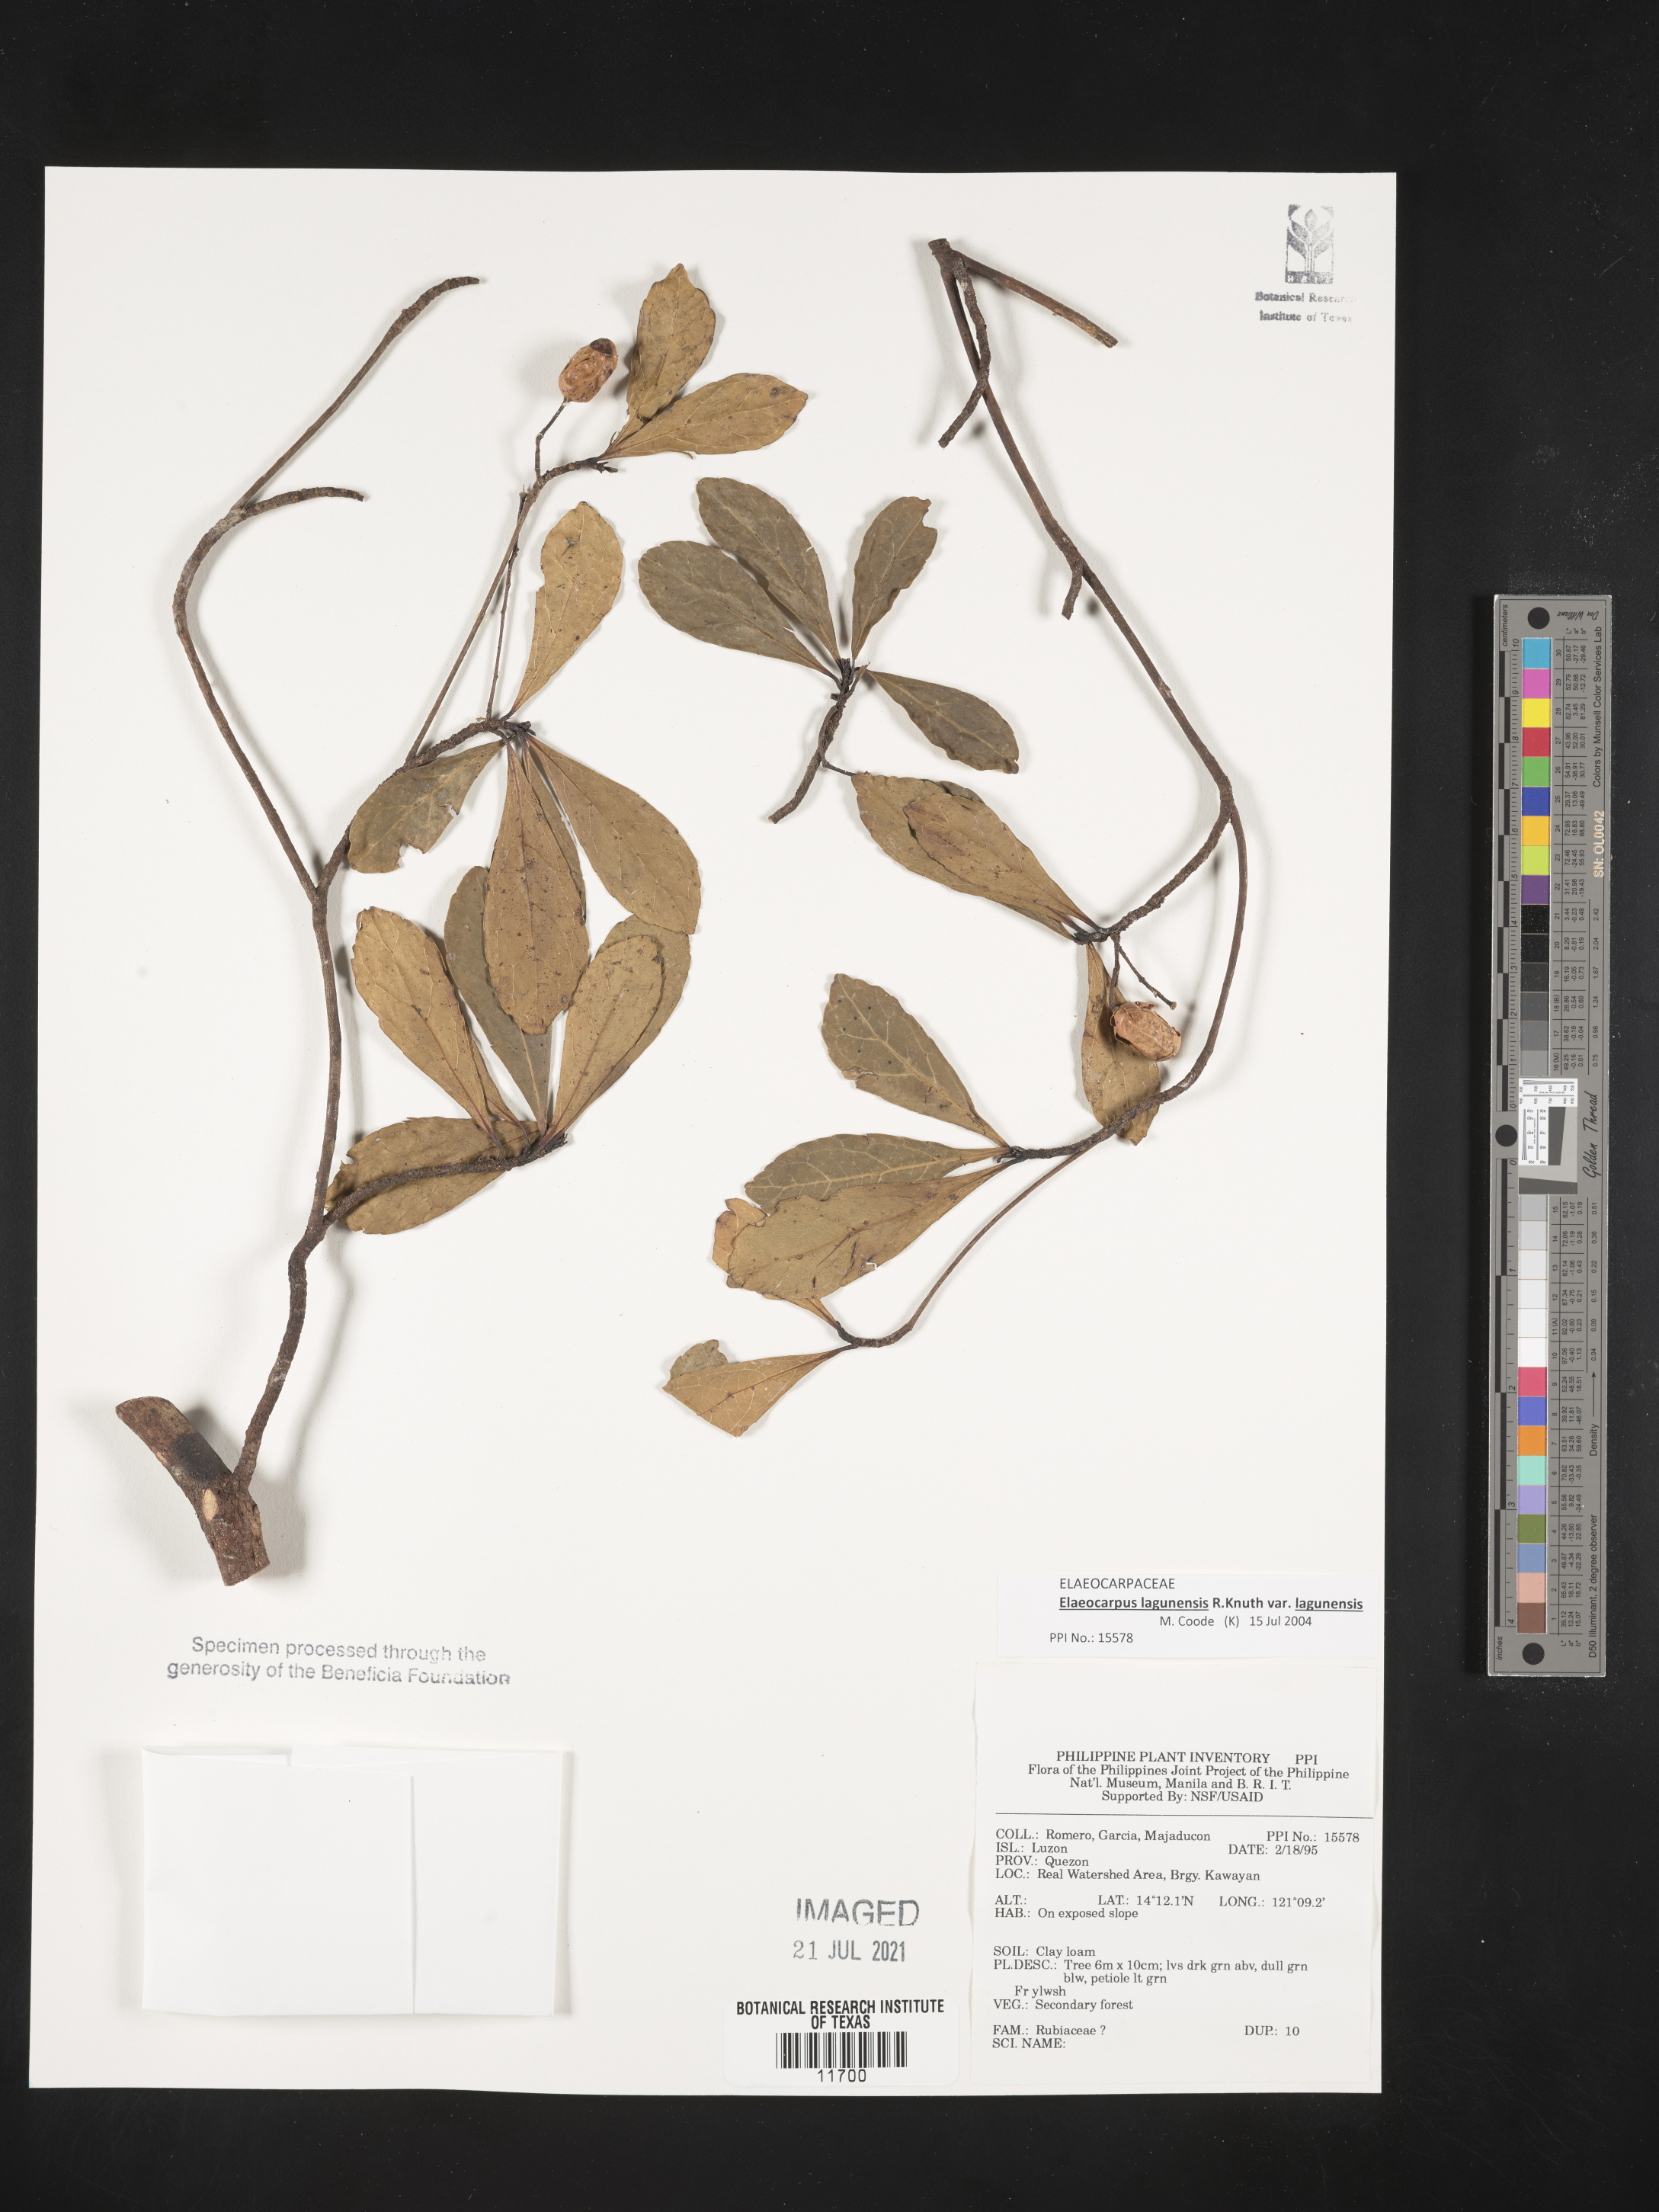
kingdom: Plantae
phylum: Tracheophyta
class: Magnoliopsida
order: Oxalidales
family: Elaeocarpaceae
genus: Elaeocarpus
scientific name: Elaeocarpus lagunensis
